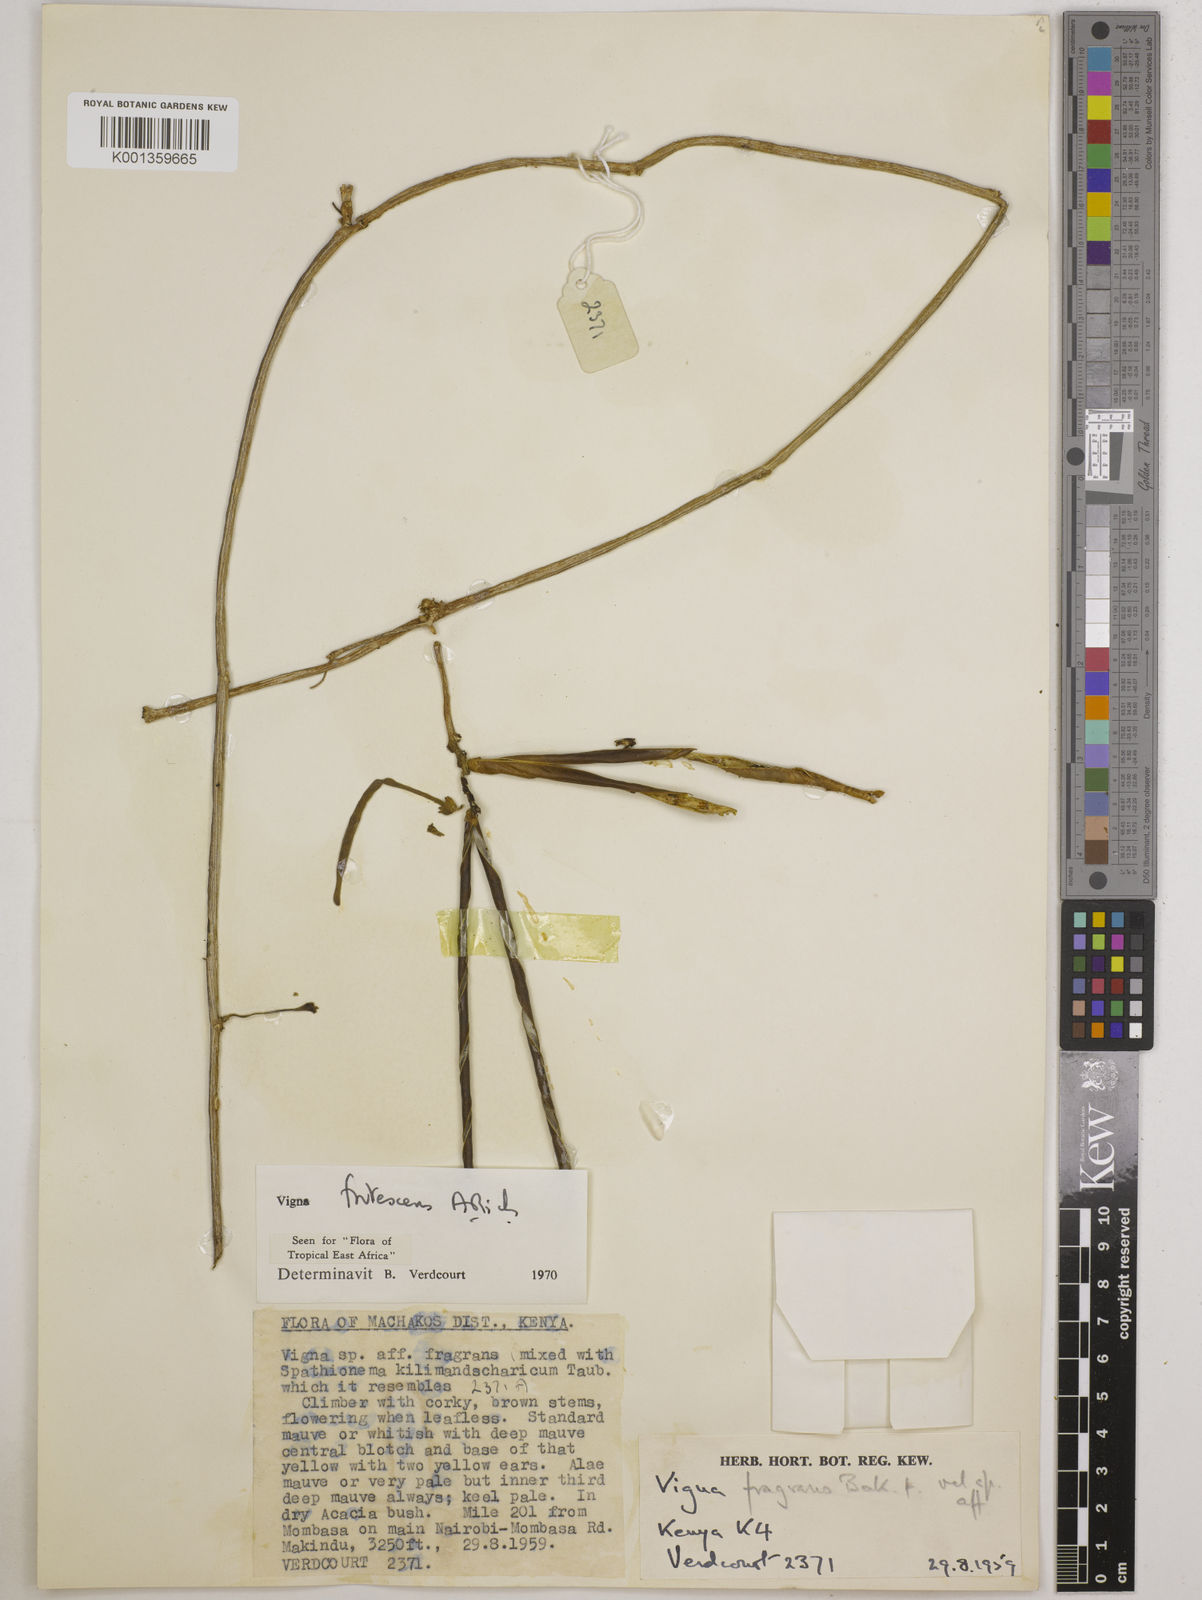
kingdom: Plantae
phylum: Tracheophyta
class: Magnoliopsida
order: Fabales
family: Fabaceae
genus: Vigna
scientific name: Vigna frutescens
